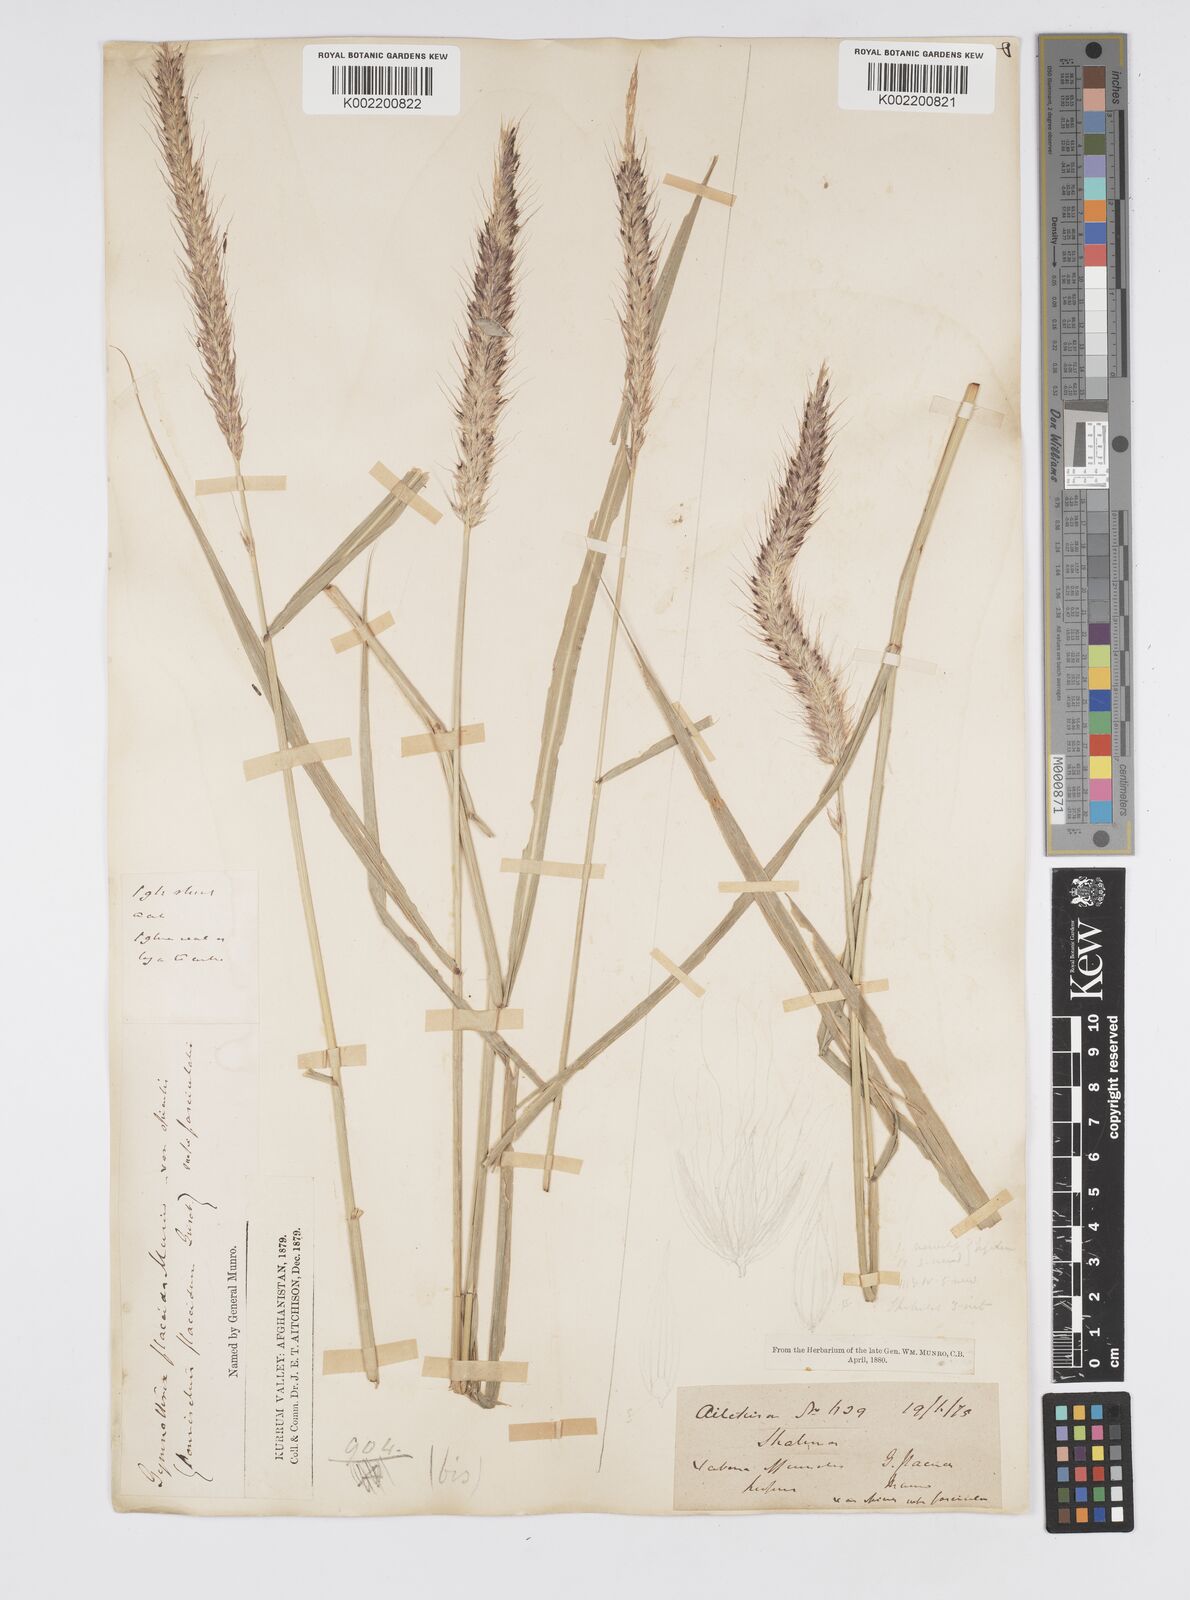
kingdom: Plantae
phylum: Tracheophyta
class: Liliopsida
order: Poales
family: Poaceae
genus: Cenchrus
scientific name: Cenchrus flaccidus
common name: Flaccid grass
